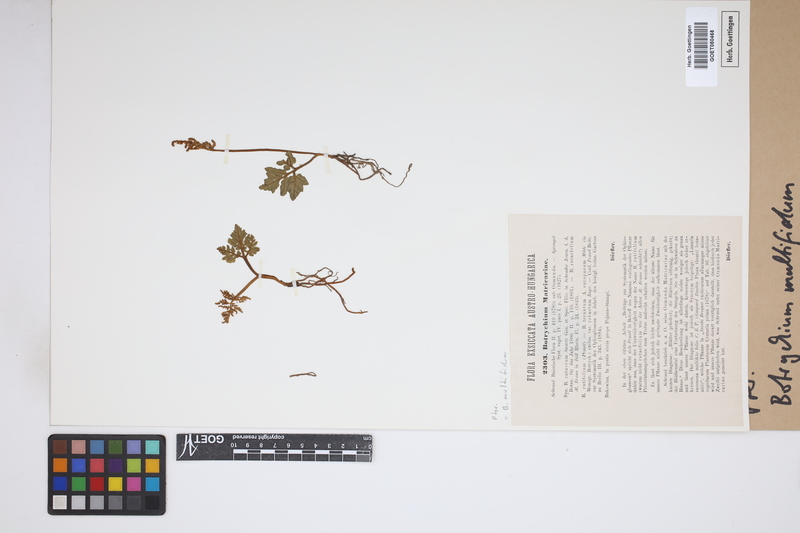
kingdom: Plantae
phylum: Tracheophyta
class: Polypodiopsida
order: Ophioglossales
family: Ophioglossaceae
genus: Sceptridium
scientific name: Sceptridium multifidum
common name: Leathery grape fern
